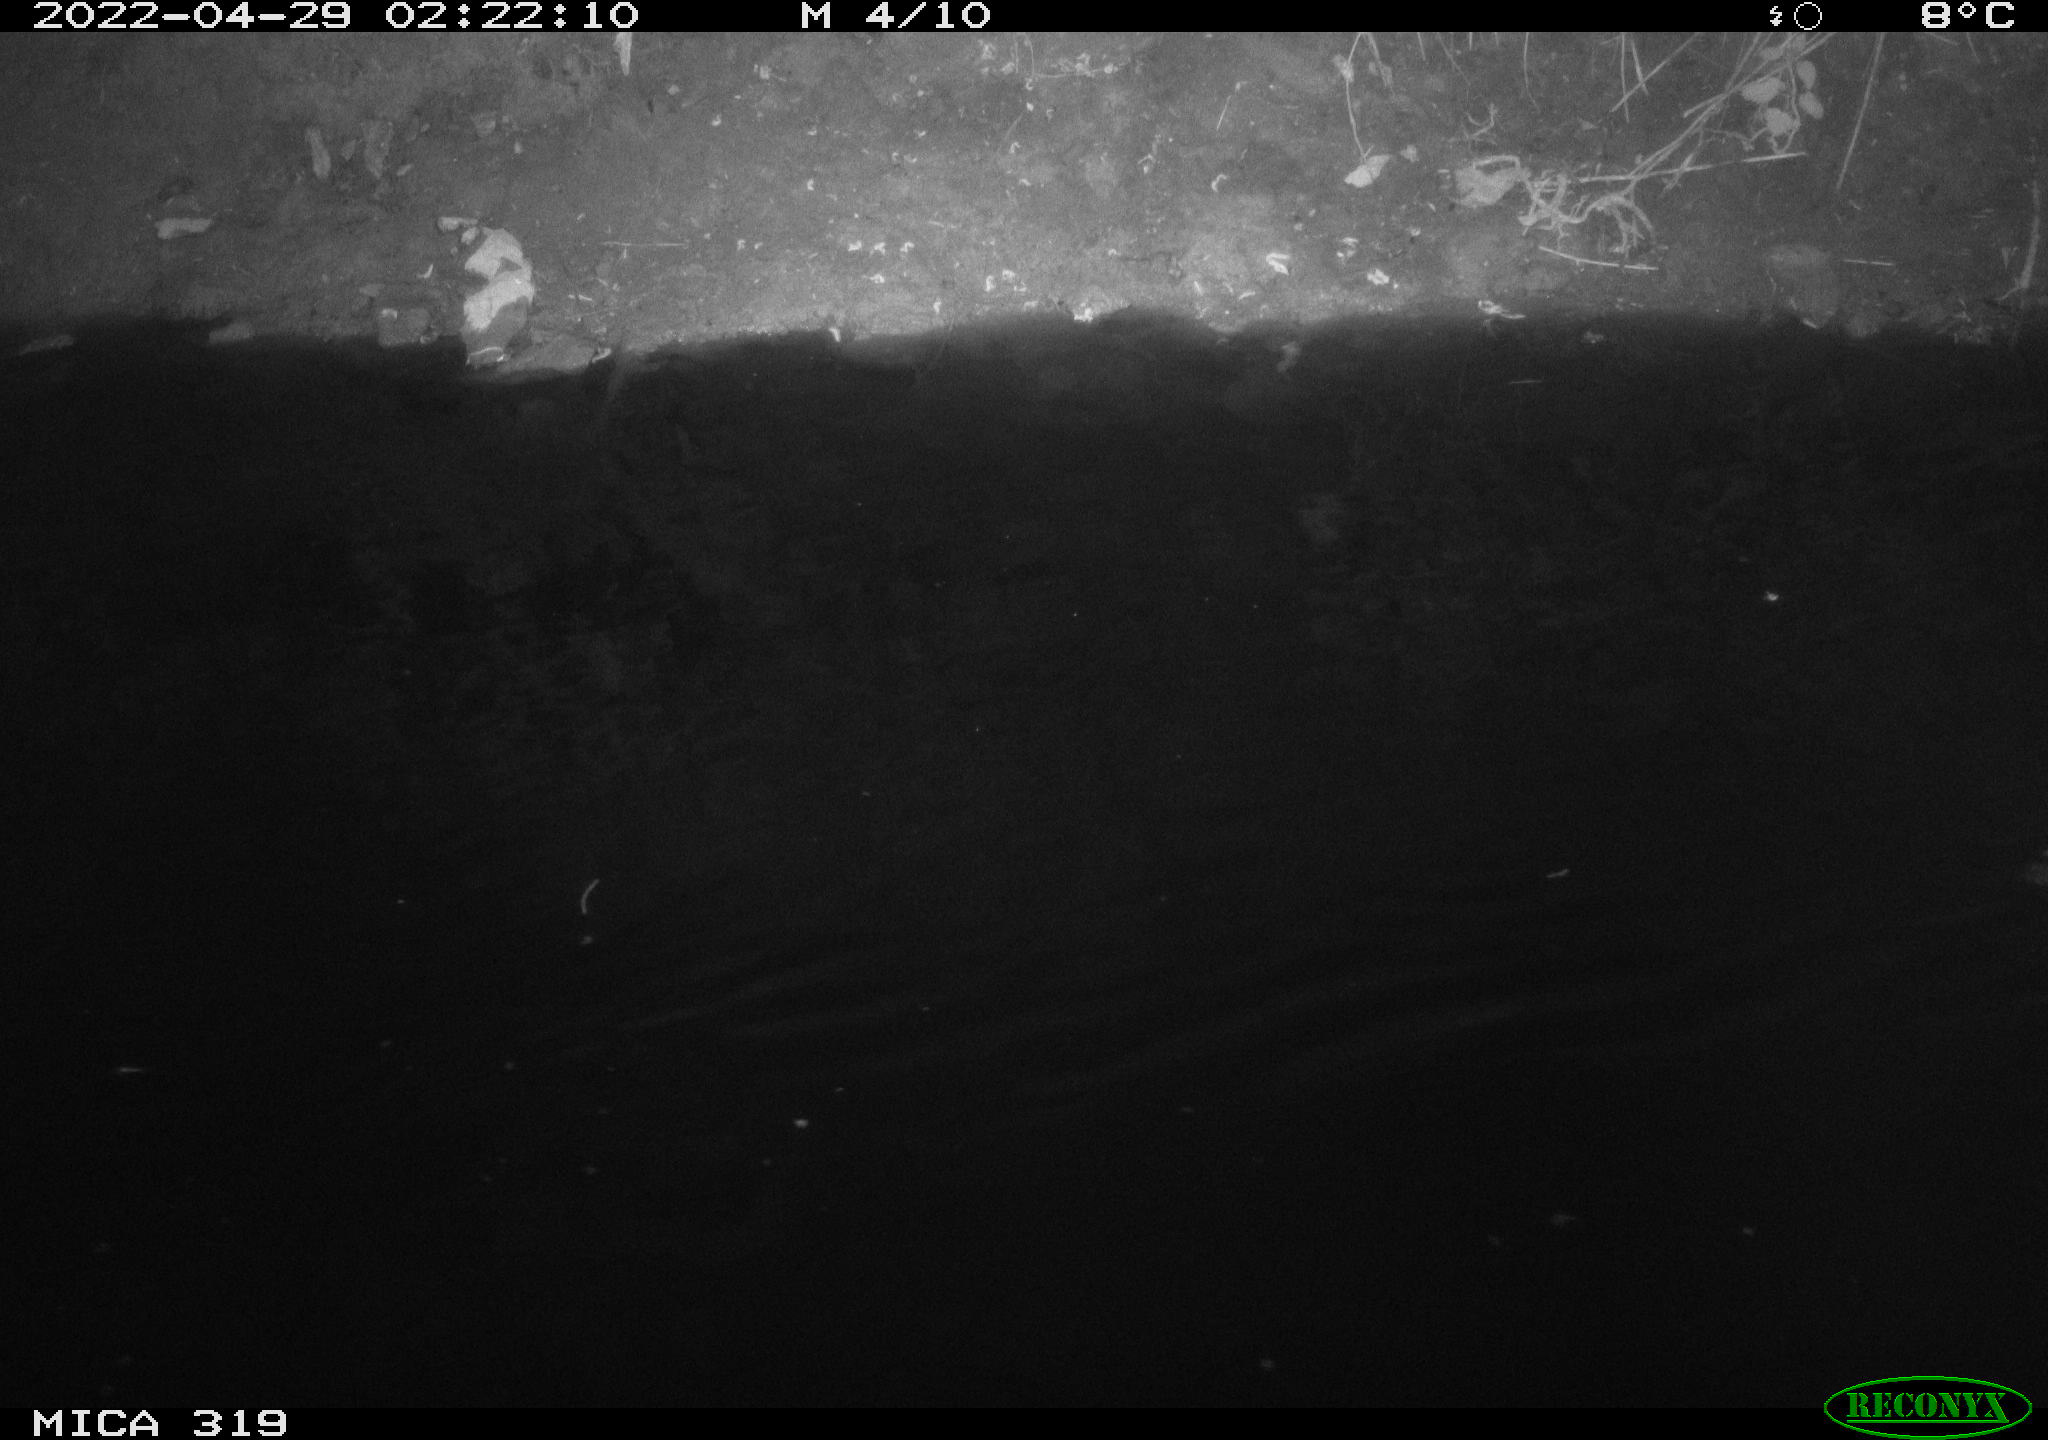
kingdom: Animalia
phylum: Chordata
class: Aves
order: Anseriformes
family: Anatidae
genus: Anas
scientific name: Anas platyrhynchos
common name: Mallard
